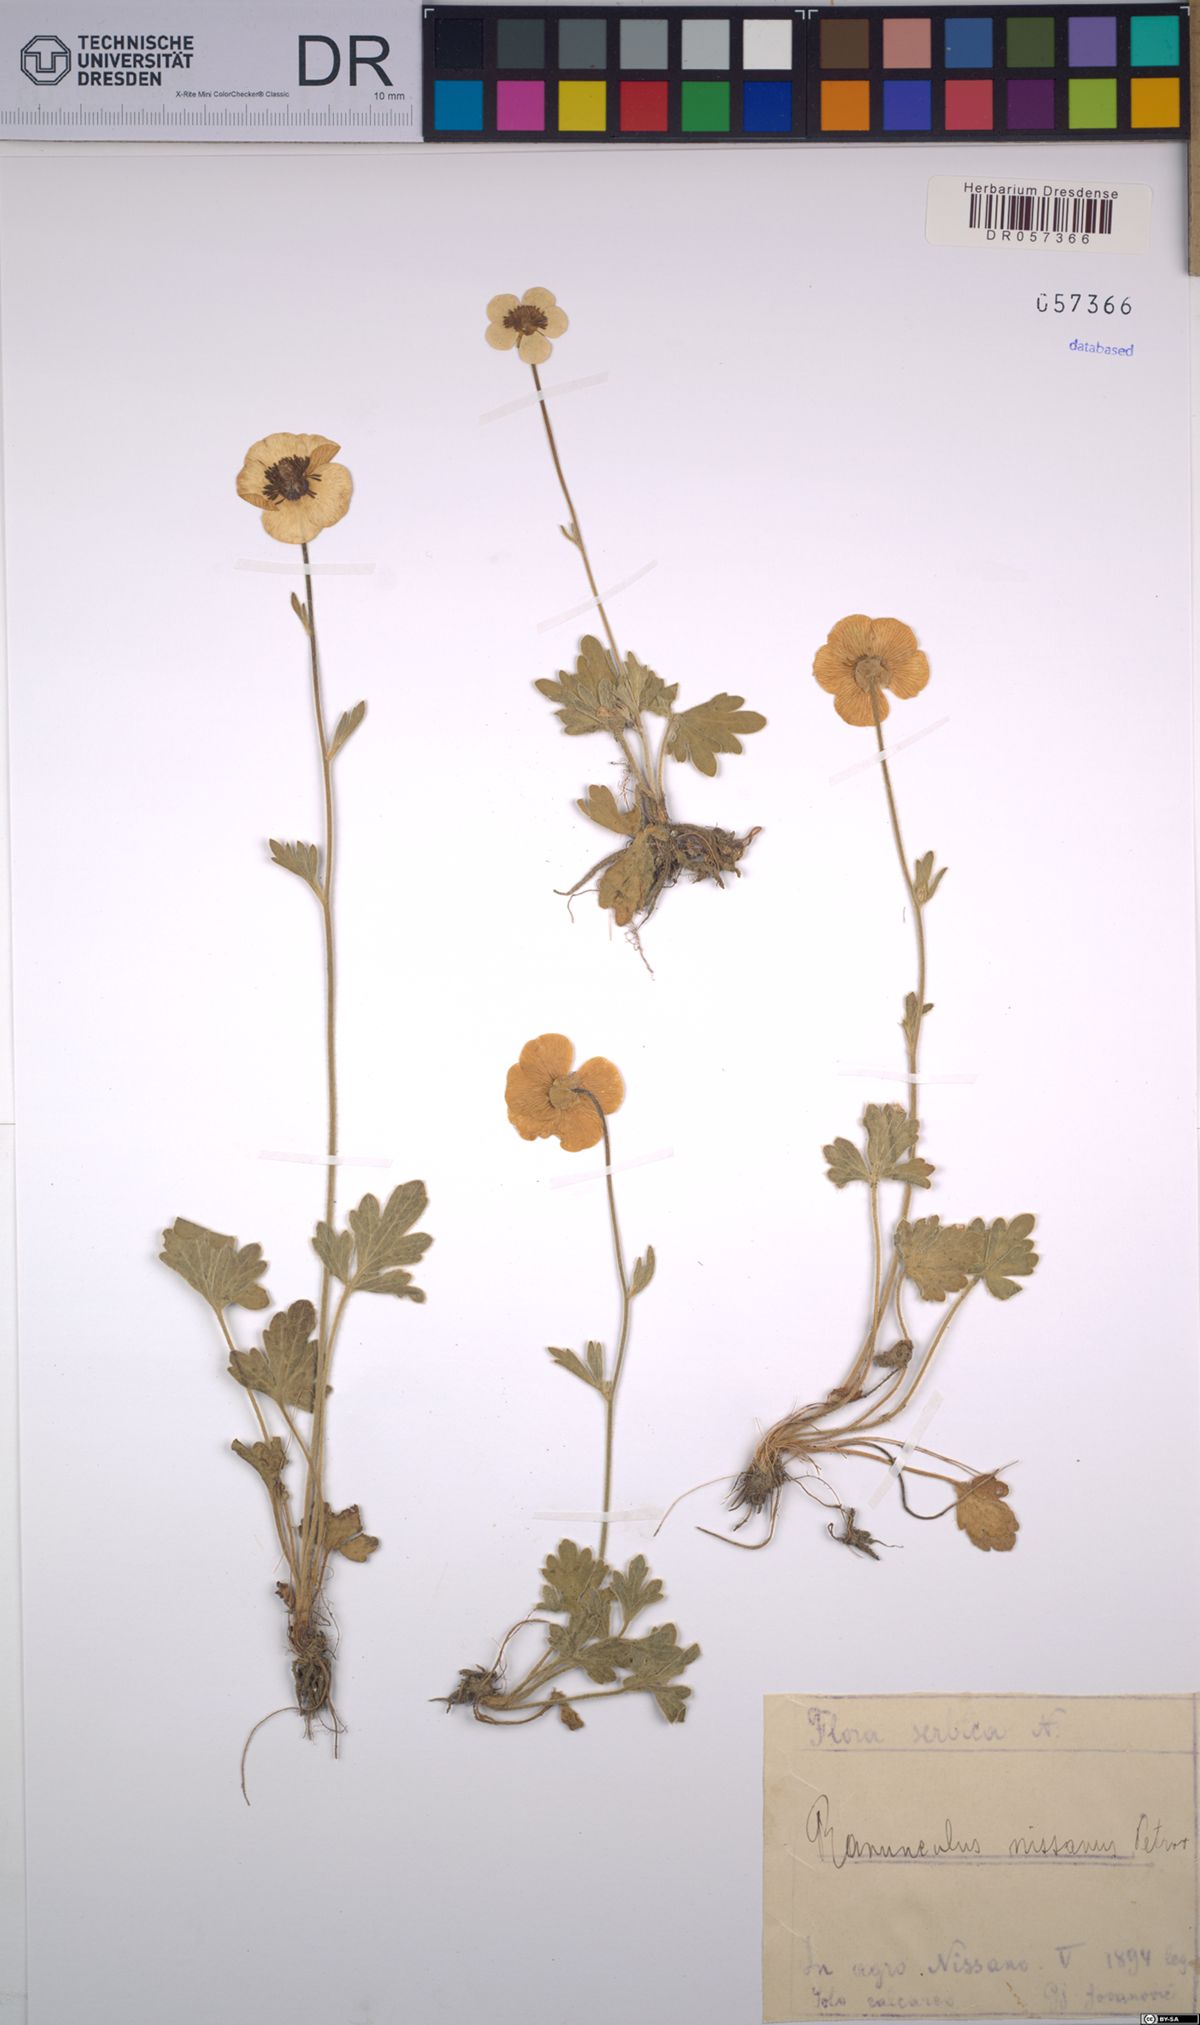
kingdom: Plantae
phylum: Tracheophyta
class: Magnoliopsida
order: Ranunculales
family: Ranunculaceae
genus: Ranunculus
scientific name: Ranunculus psilostachys
